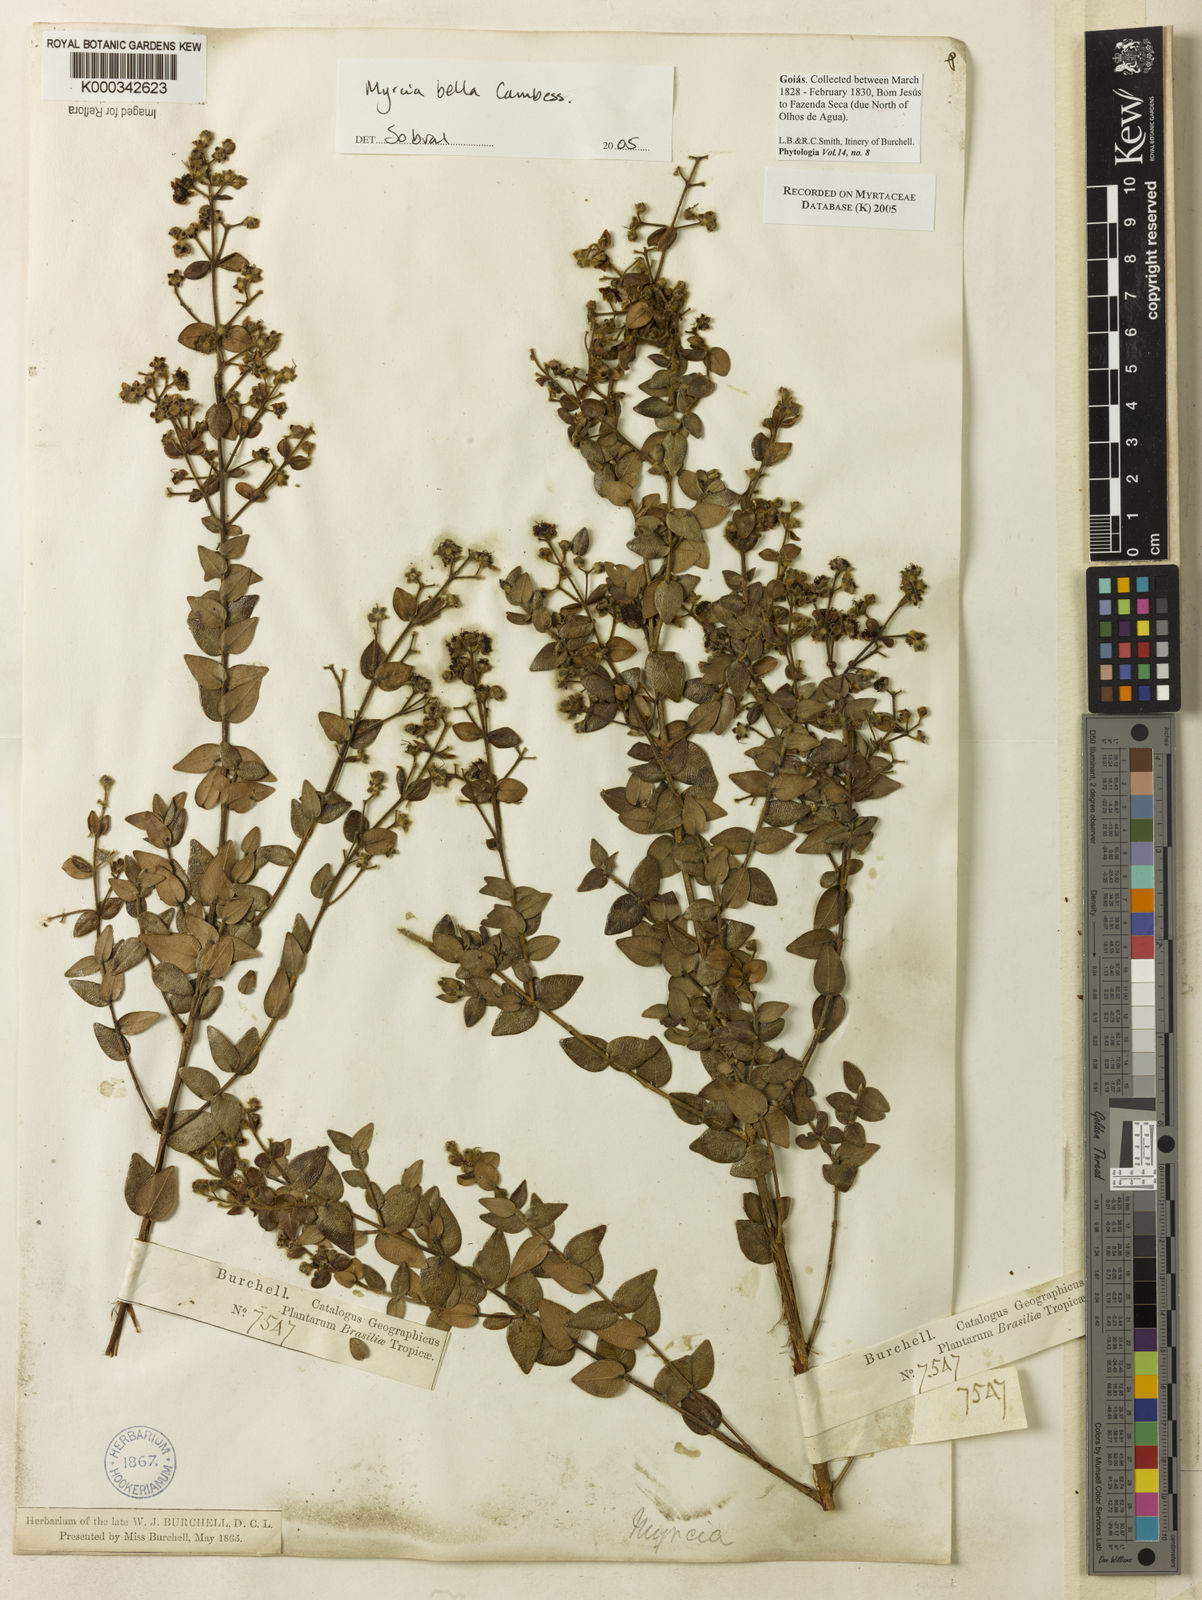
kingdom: Plantae
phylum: Tracheophyta
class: Magnoliopsida
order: Myrtales
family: Myrtaceae
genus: Myrcia
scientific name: Myrcia bella
